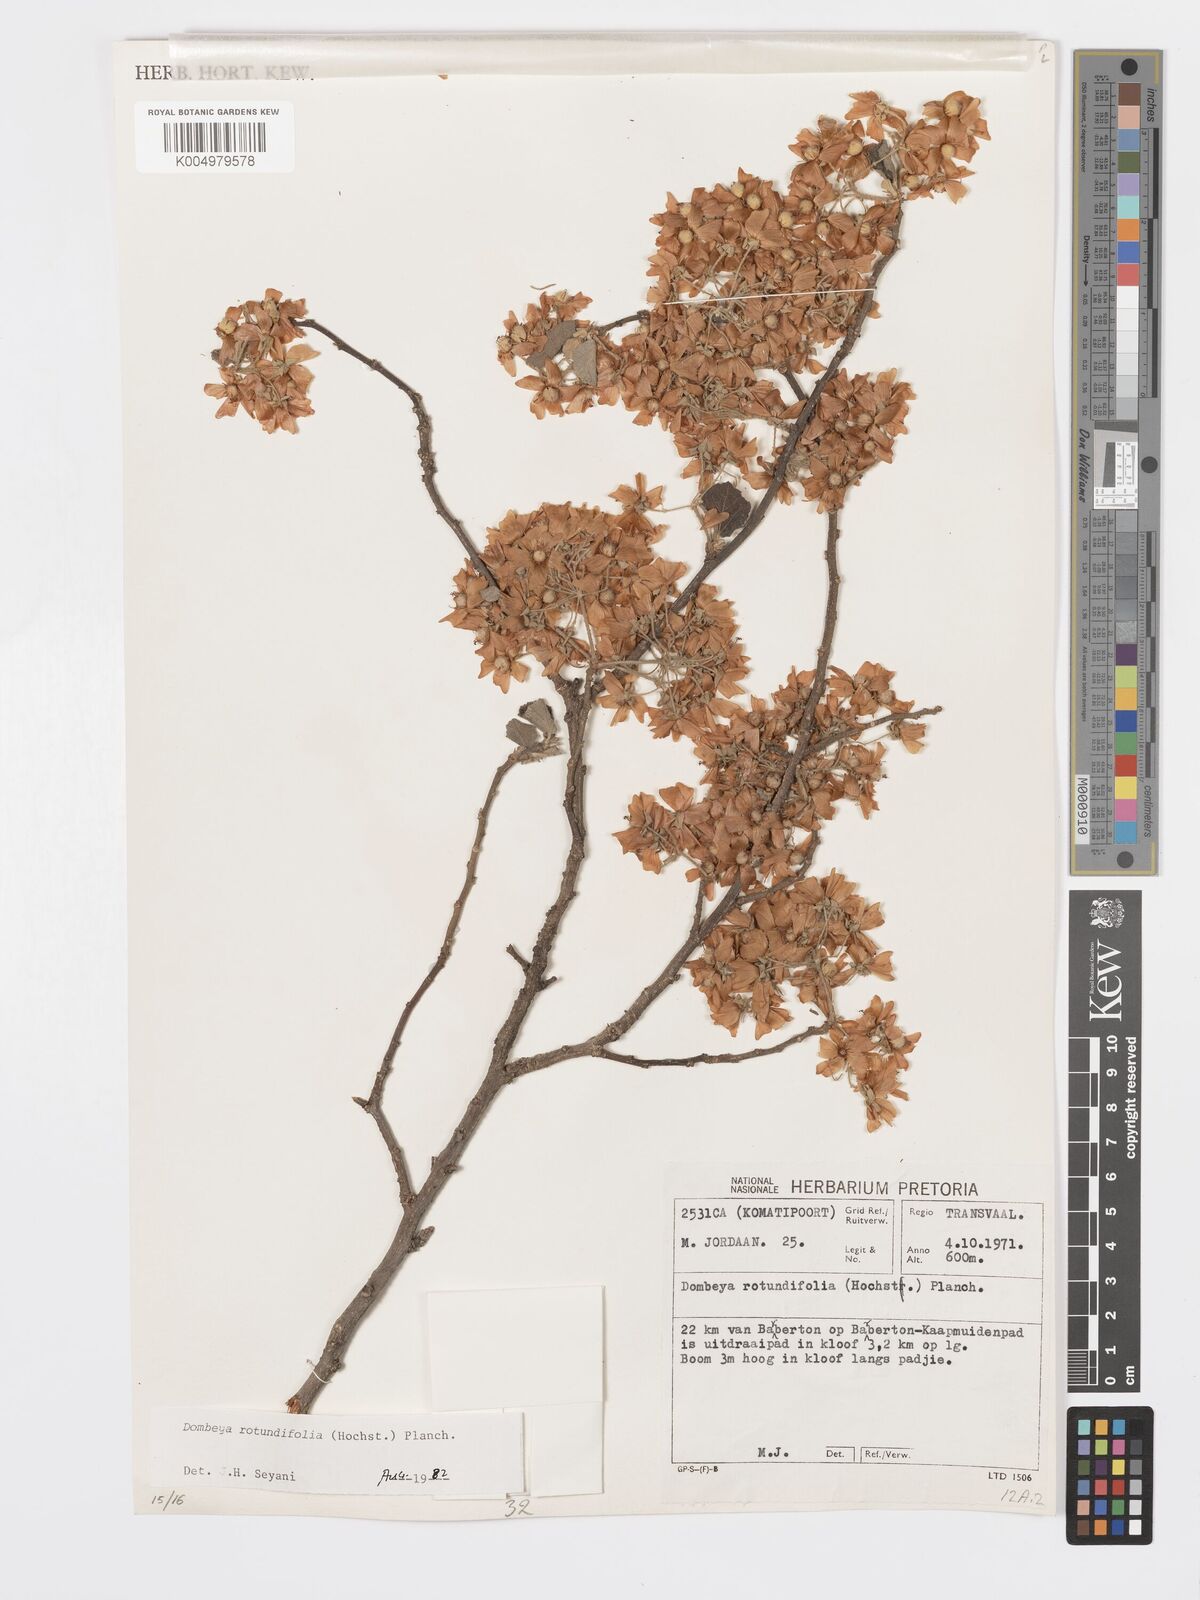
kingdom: Plantae
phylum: Tracheophyta
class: Magnoliopsida
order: Malvales
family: Malvaceae
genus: Dombeya
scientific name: Dombeya rotundifolia
